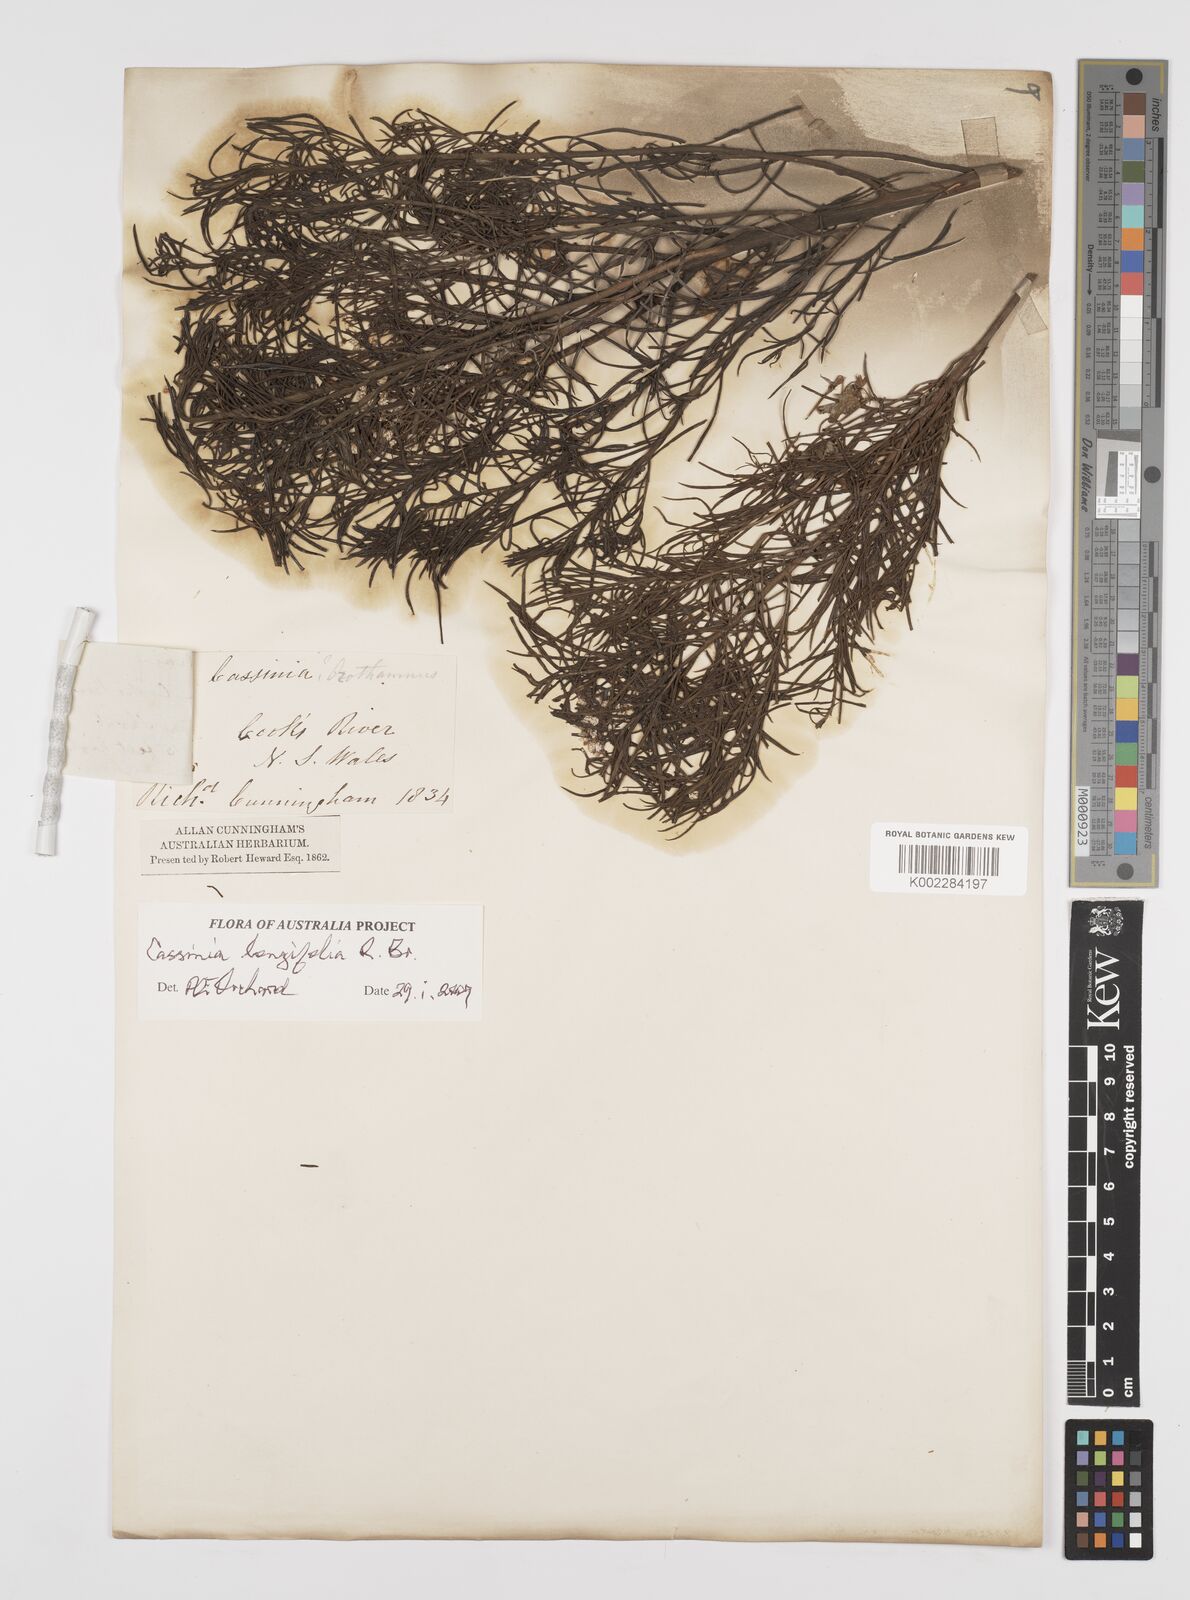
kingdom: Plantae
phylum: Tracheophyta
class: Magnoliopsida
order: Asterales
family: Asteraceae
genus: Cassinia
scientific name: Cassinia longifolia
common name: Longleaf-dogwood
